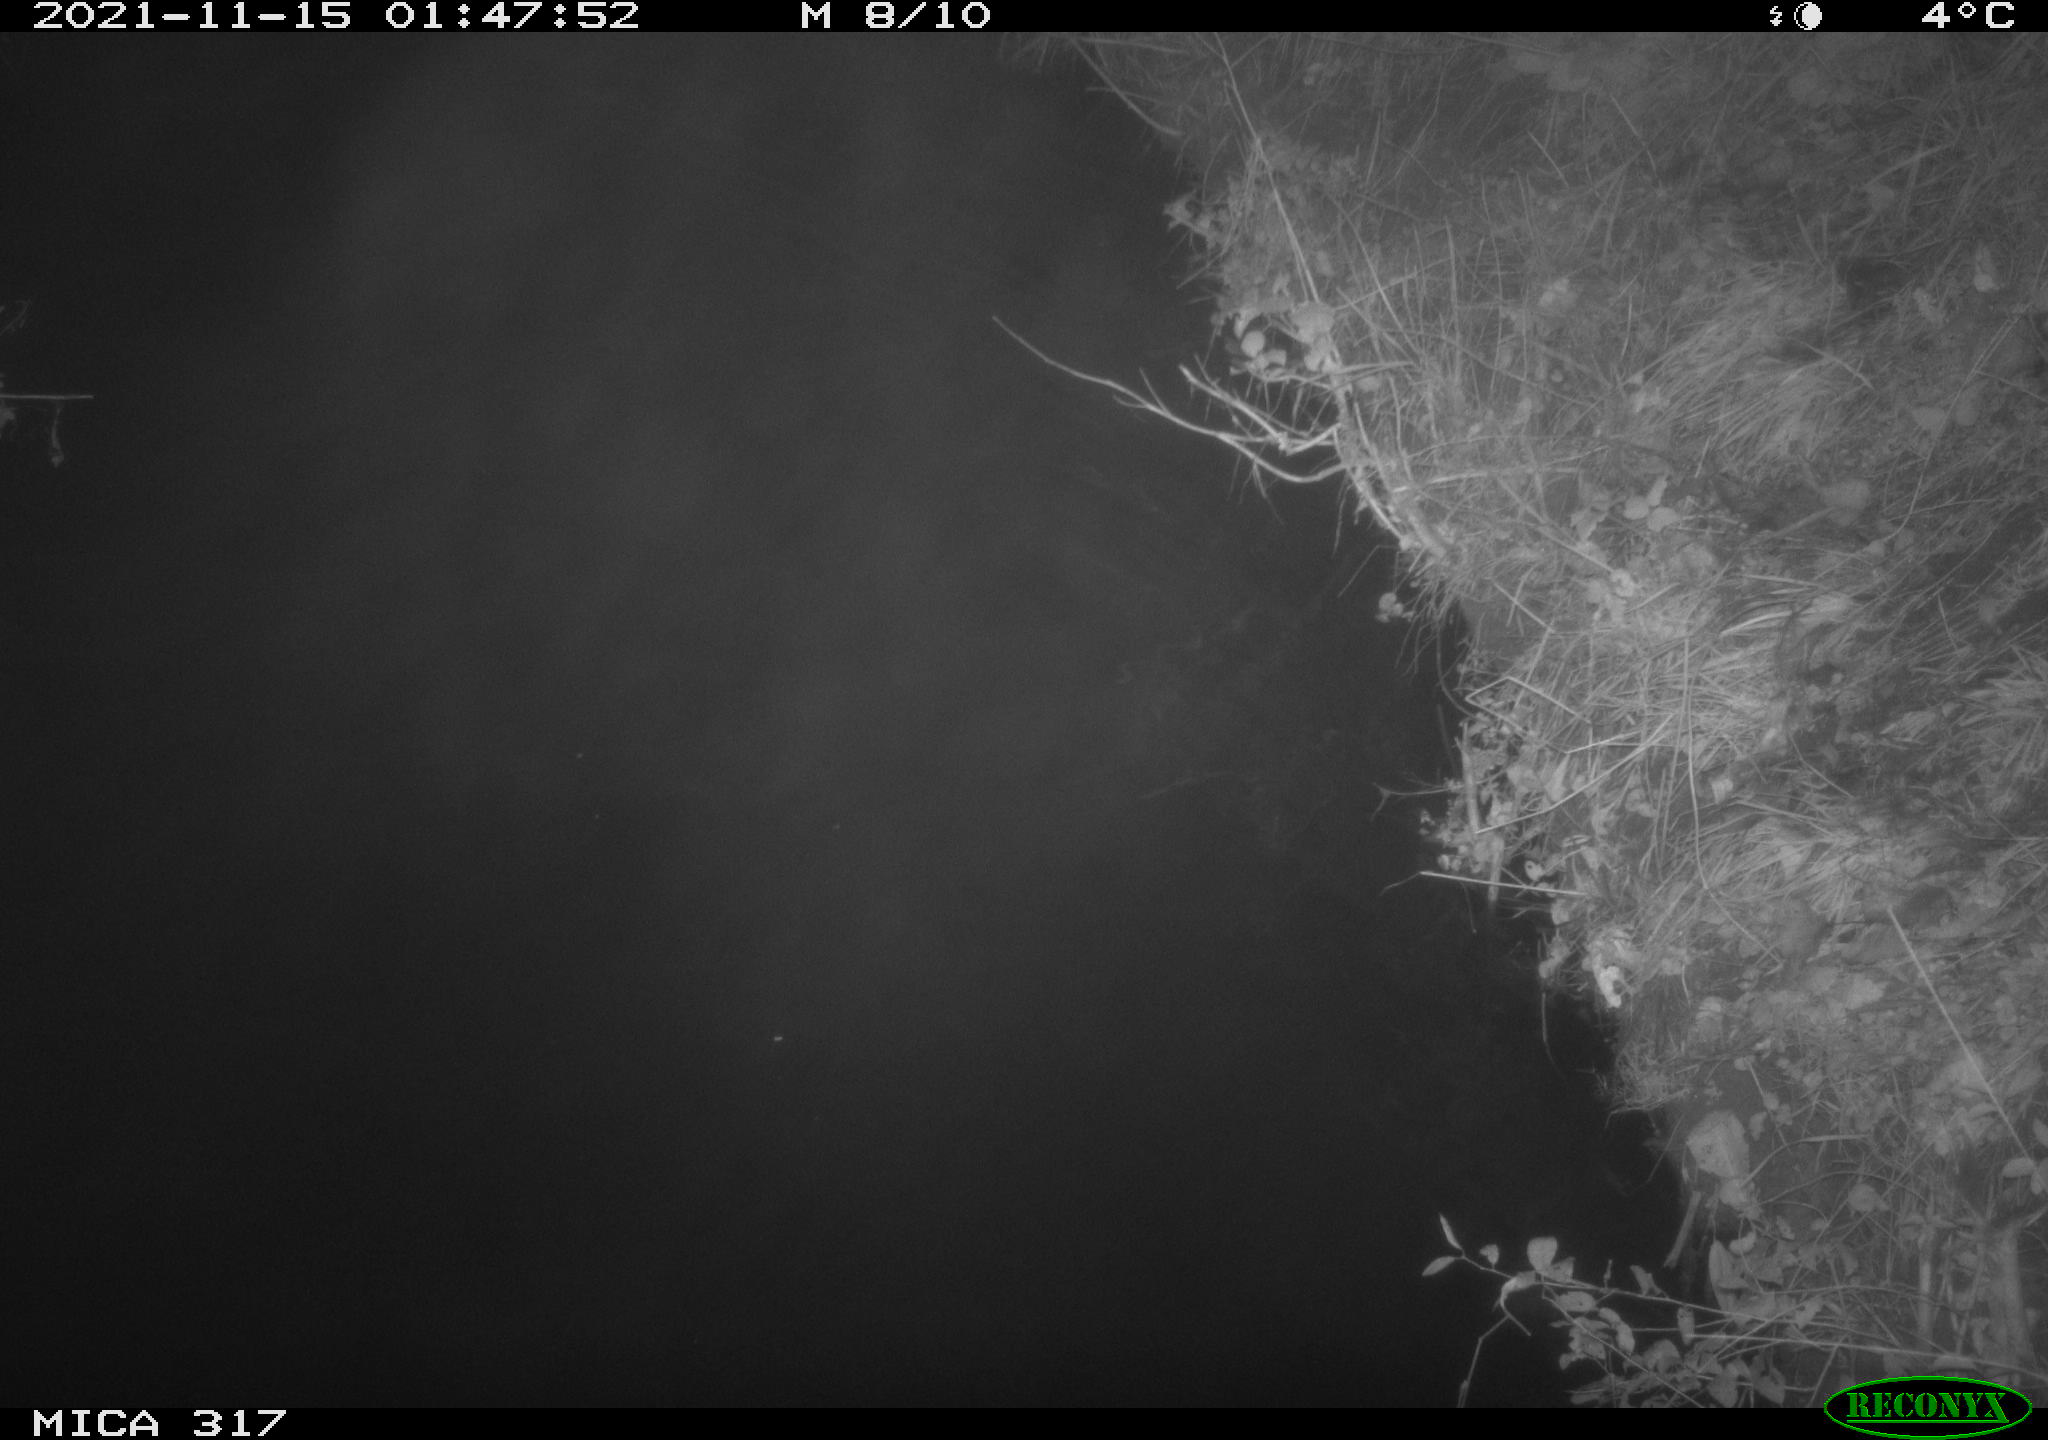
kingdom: Animalia
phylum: Chordata
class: Aves
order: Anseriformes
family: Anatidae
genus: Anas
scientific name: Anas platyrhynchos
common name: Mallard
